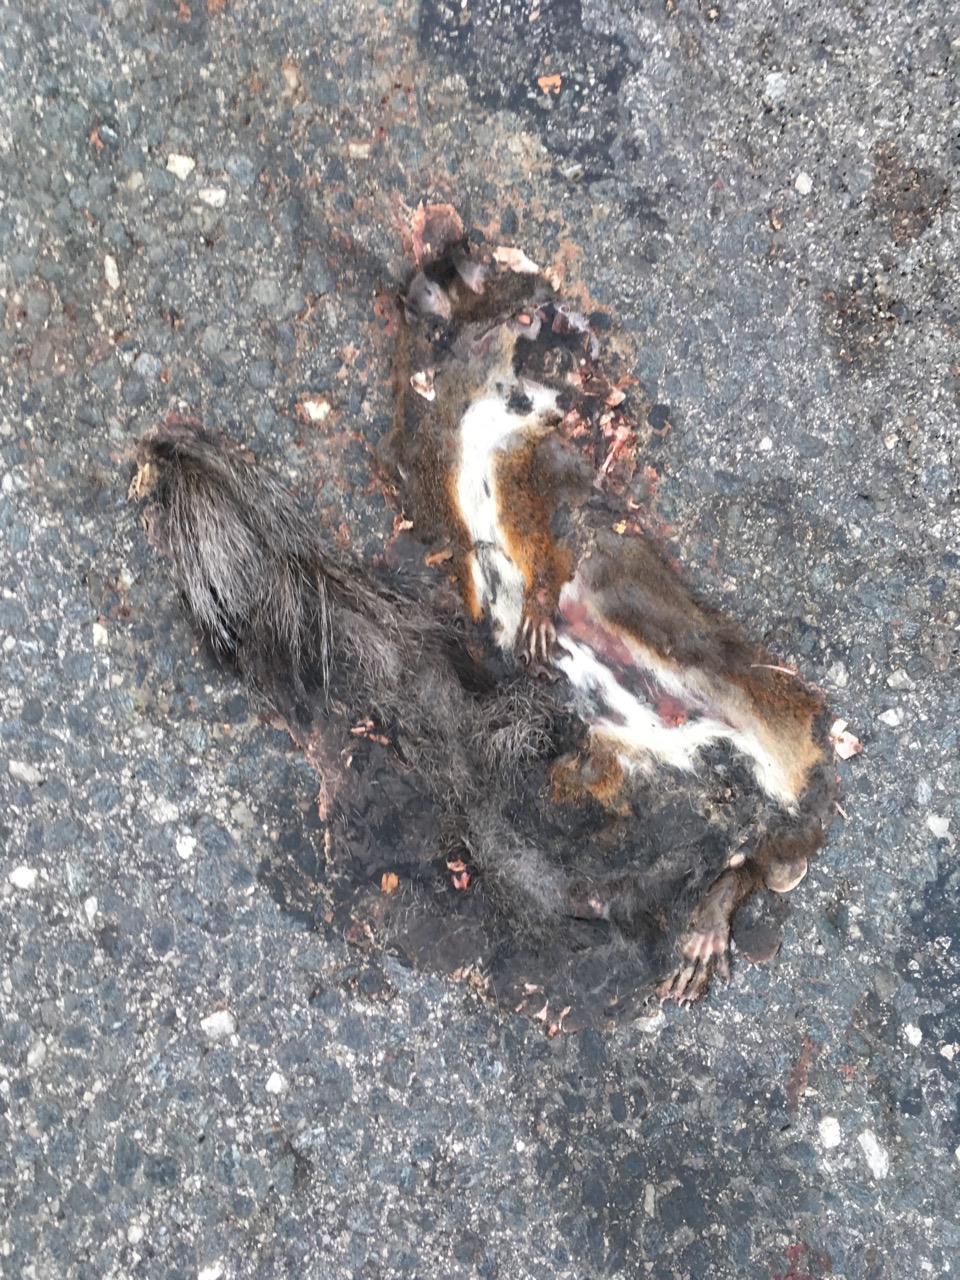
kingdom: Animalia
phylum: Chordata
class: Mammalia
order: Rodentia
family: Sciuridae
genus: Sciurus
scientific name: Sciurus vulgaris
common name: Eurasian red squirrel
